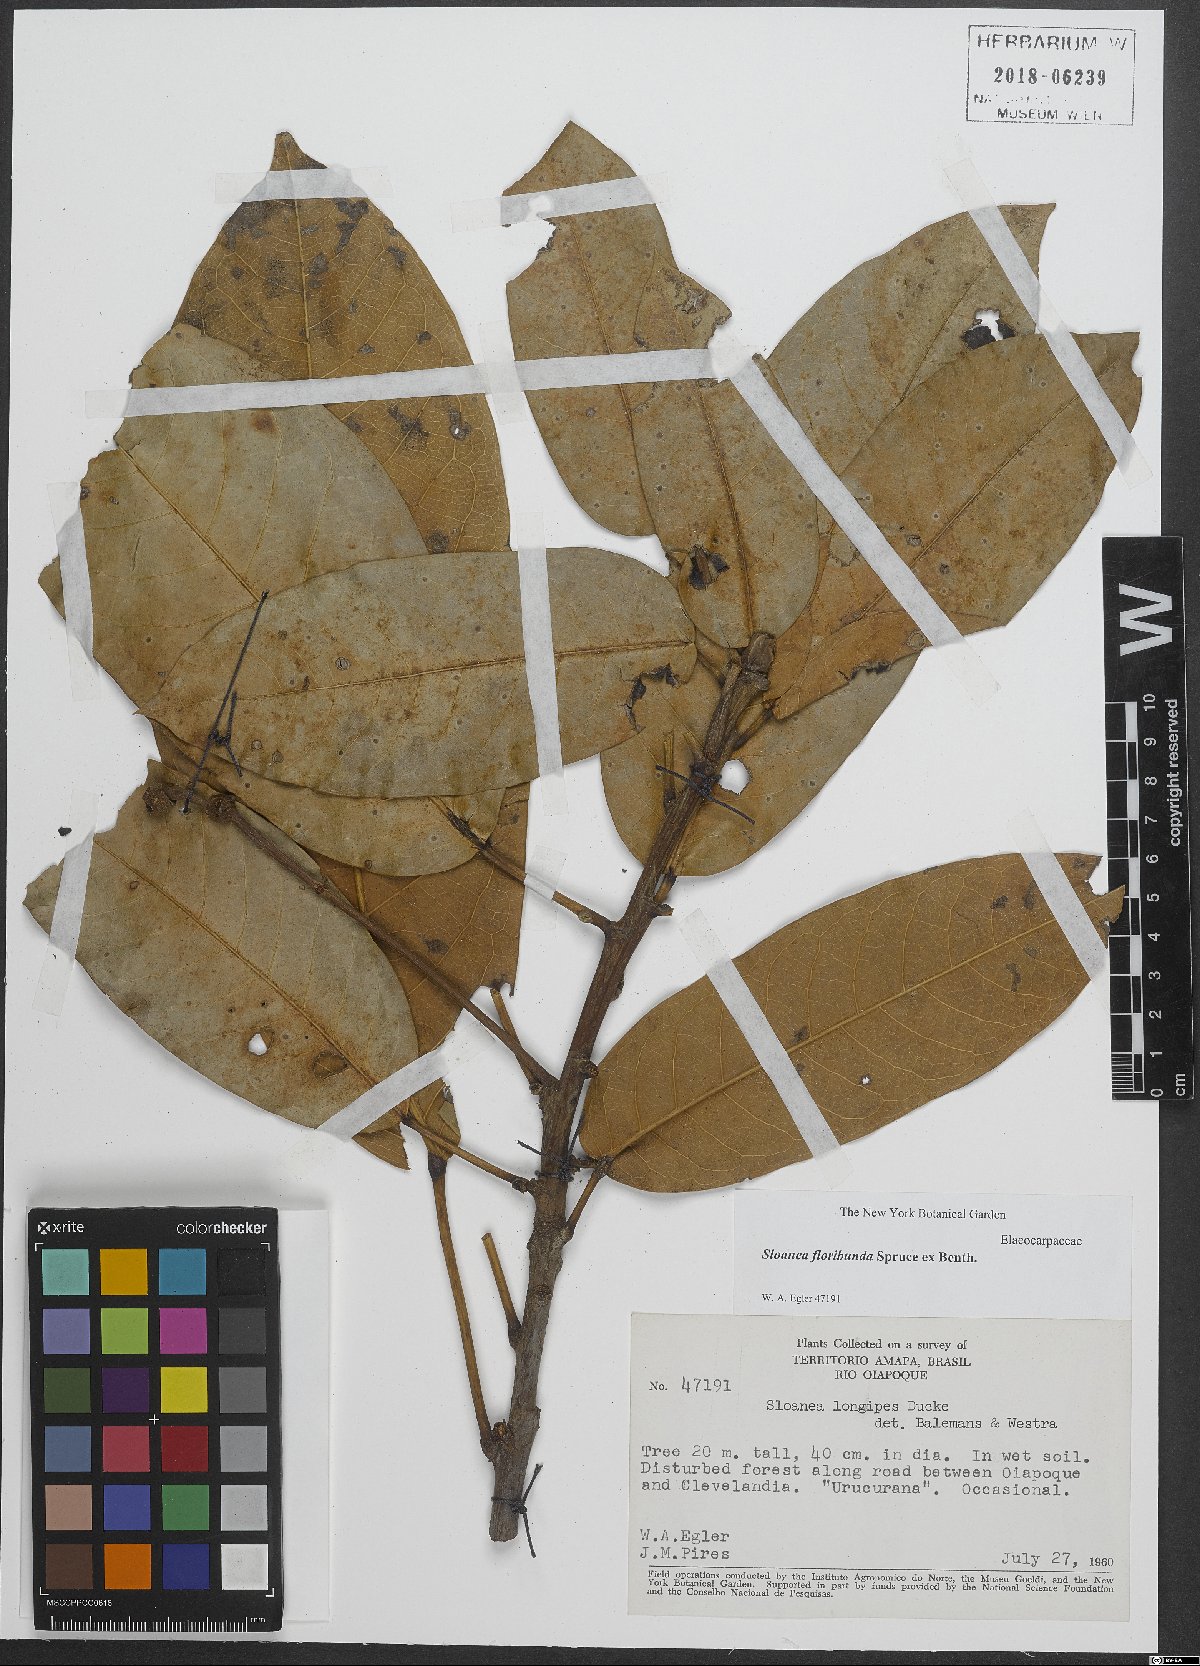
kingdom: Plantae
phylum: Tracheophyta
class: Magnoliopsida
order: Oxalidales
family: Elaeocarpaceae
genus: Sloanea
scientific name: Sloanea floribunda
